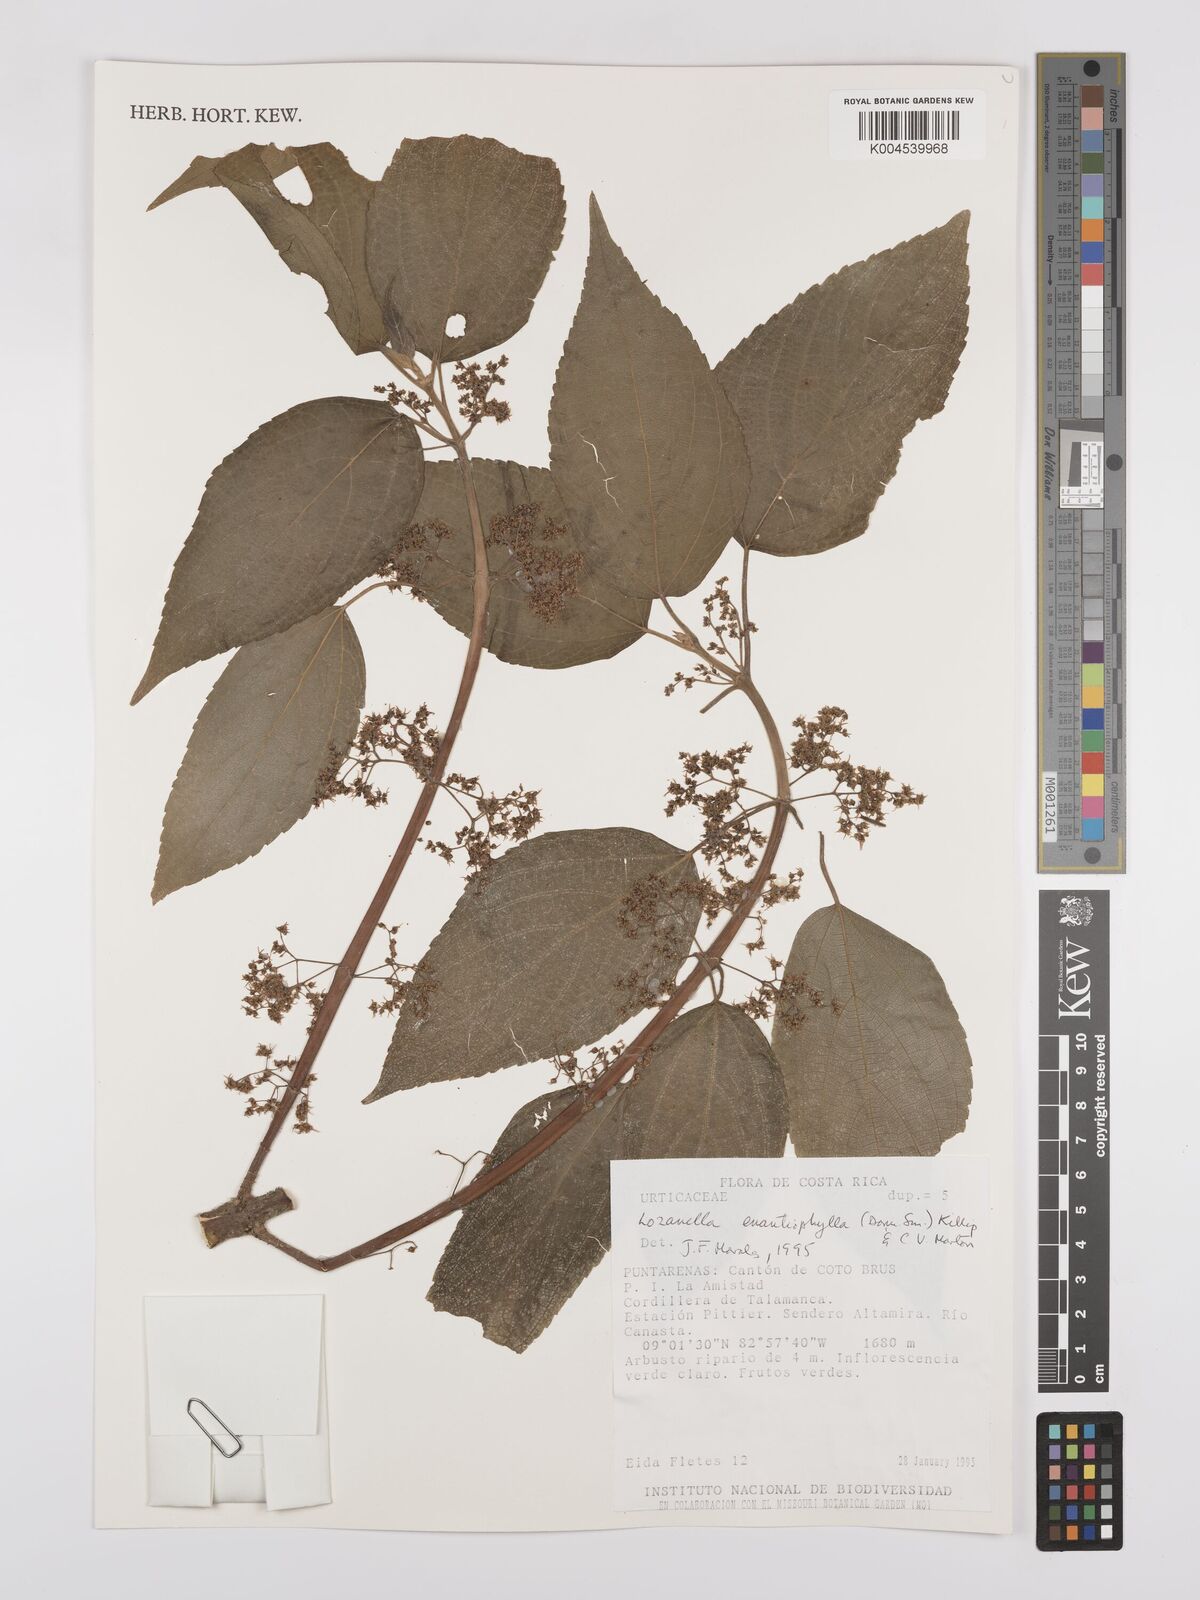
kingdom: Plantae
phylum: Tracheophyta
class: Magnoliopsida
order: Rosales
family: Cannabaceae
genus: Lozanella
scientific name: Lozanella enantiophylla
